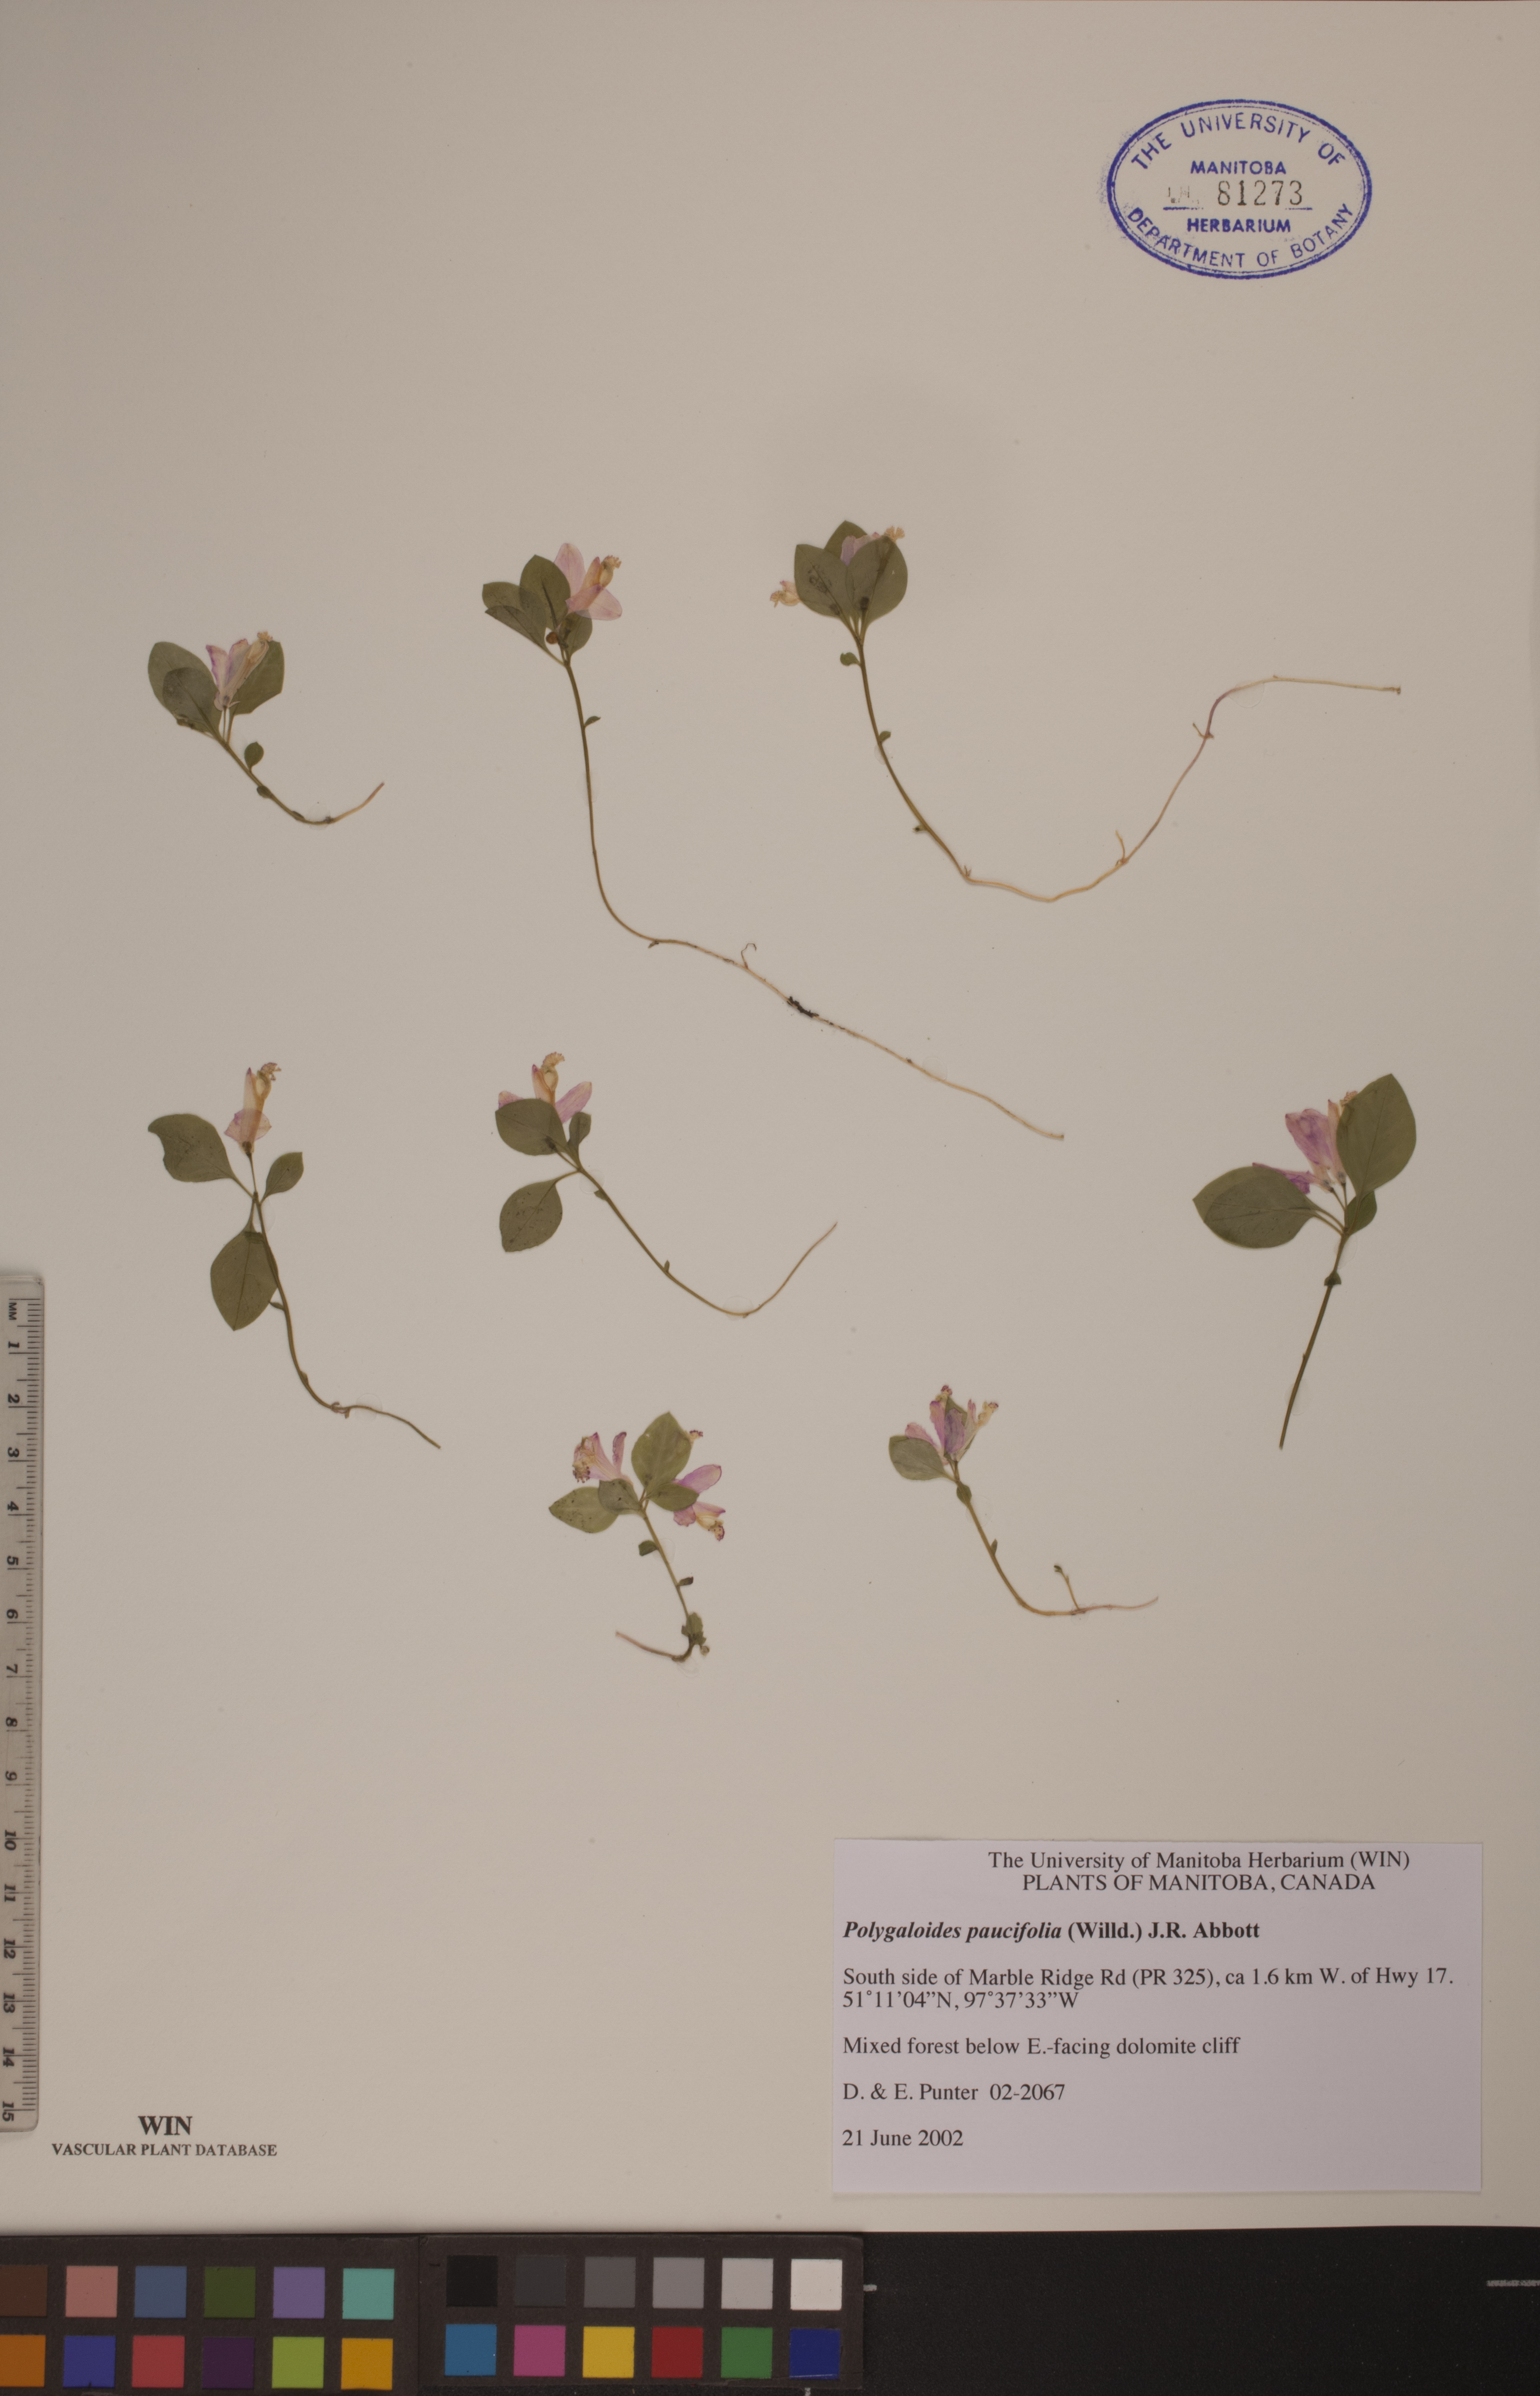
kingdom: Plantae
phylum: Tracheophyta
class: Magnoliopsida
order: Fabales
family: Polygalaceae
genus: Polygaloides
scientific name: Polygaloides paucifolia
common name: Bird-on-the-wing
